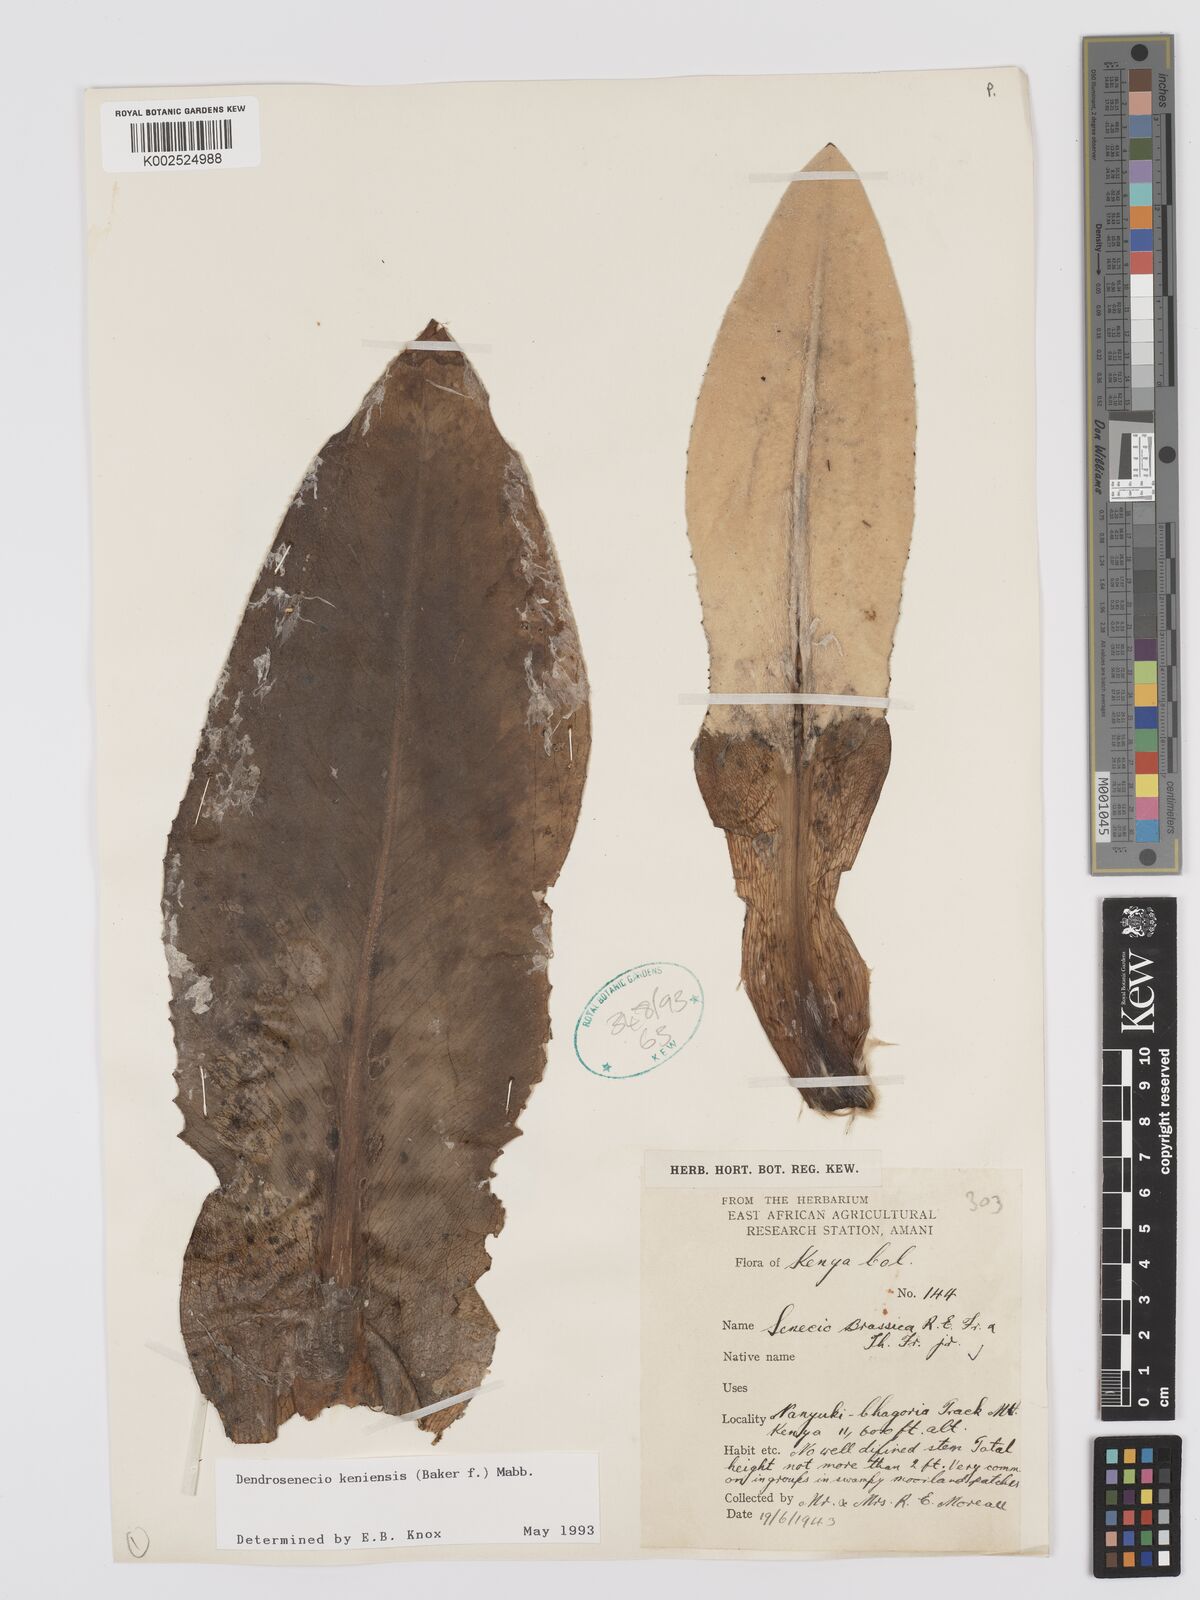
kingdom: Plantae
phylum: Tracheophyta
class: Magnoliopsida
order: Asterales
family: Asteraceae
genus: Dendrosenecio
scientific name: Dendrosenecio keniensis
